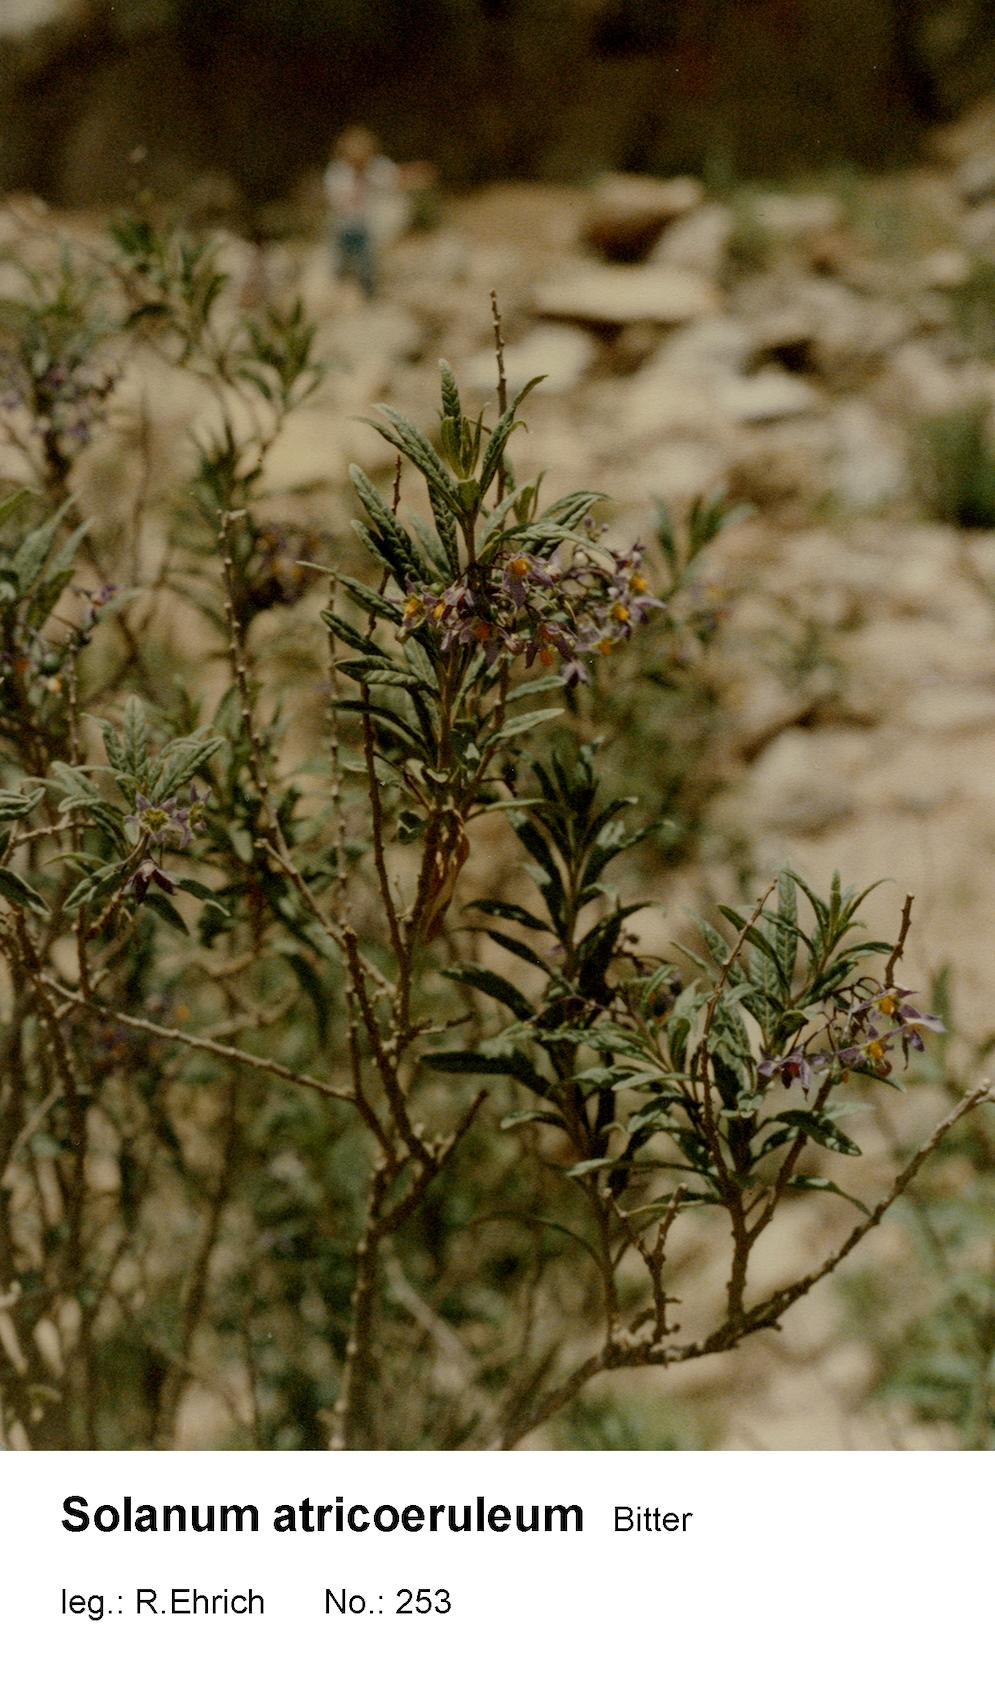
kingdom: Plantae
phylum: Tracheophyta
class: Magnoliopsida
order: Solanales
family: Solanaceae
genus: Solanum
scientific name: Solanum gonocladum
